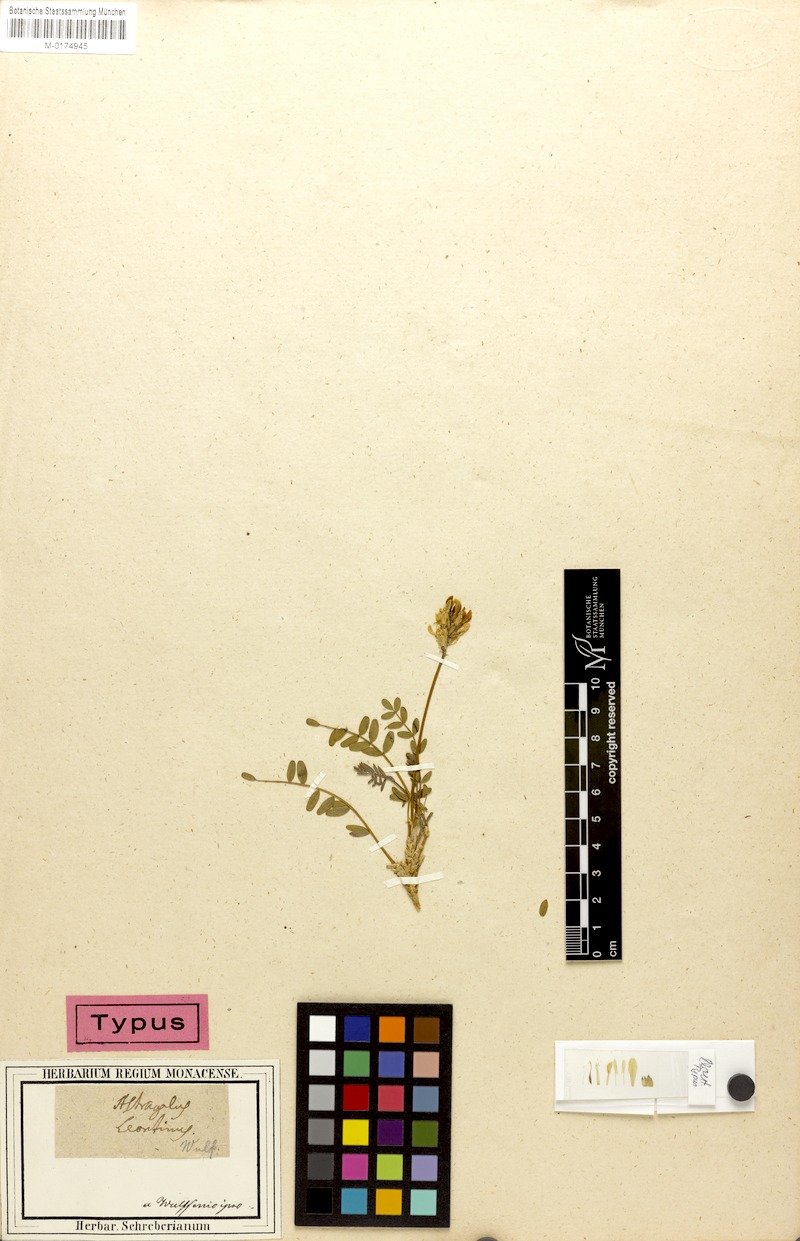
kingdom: Plantae
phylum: Tracheophyta
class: Magnoliopsida
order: Fabales
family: Fabaceae
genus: Astragalus
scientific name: Astragalus leontinus
